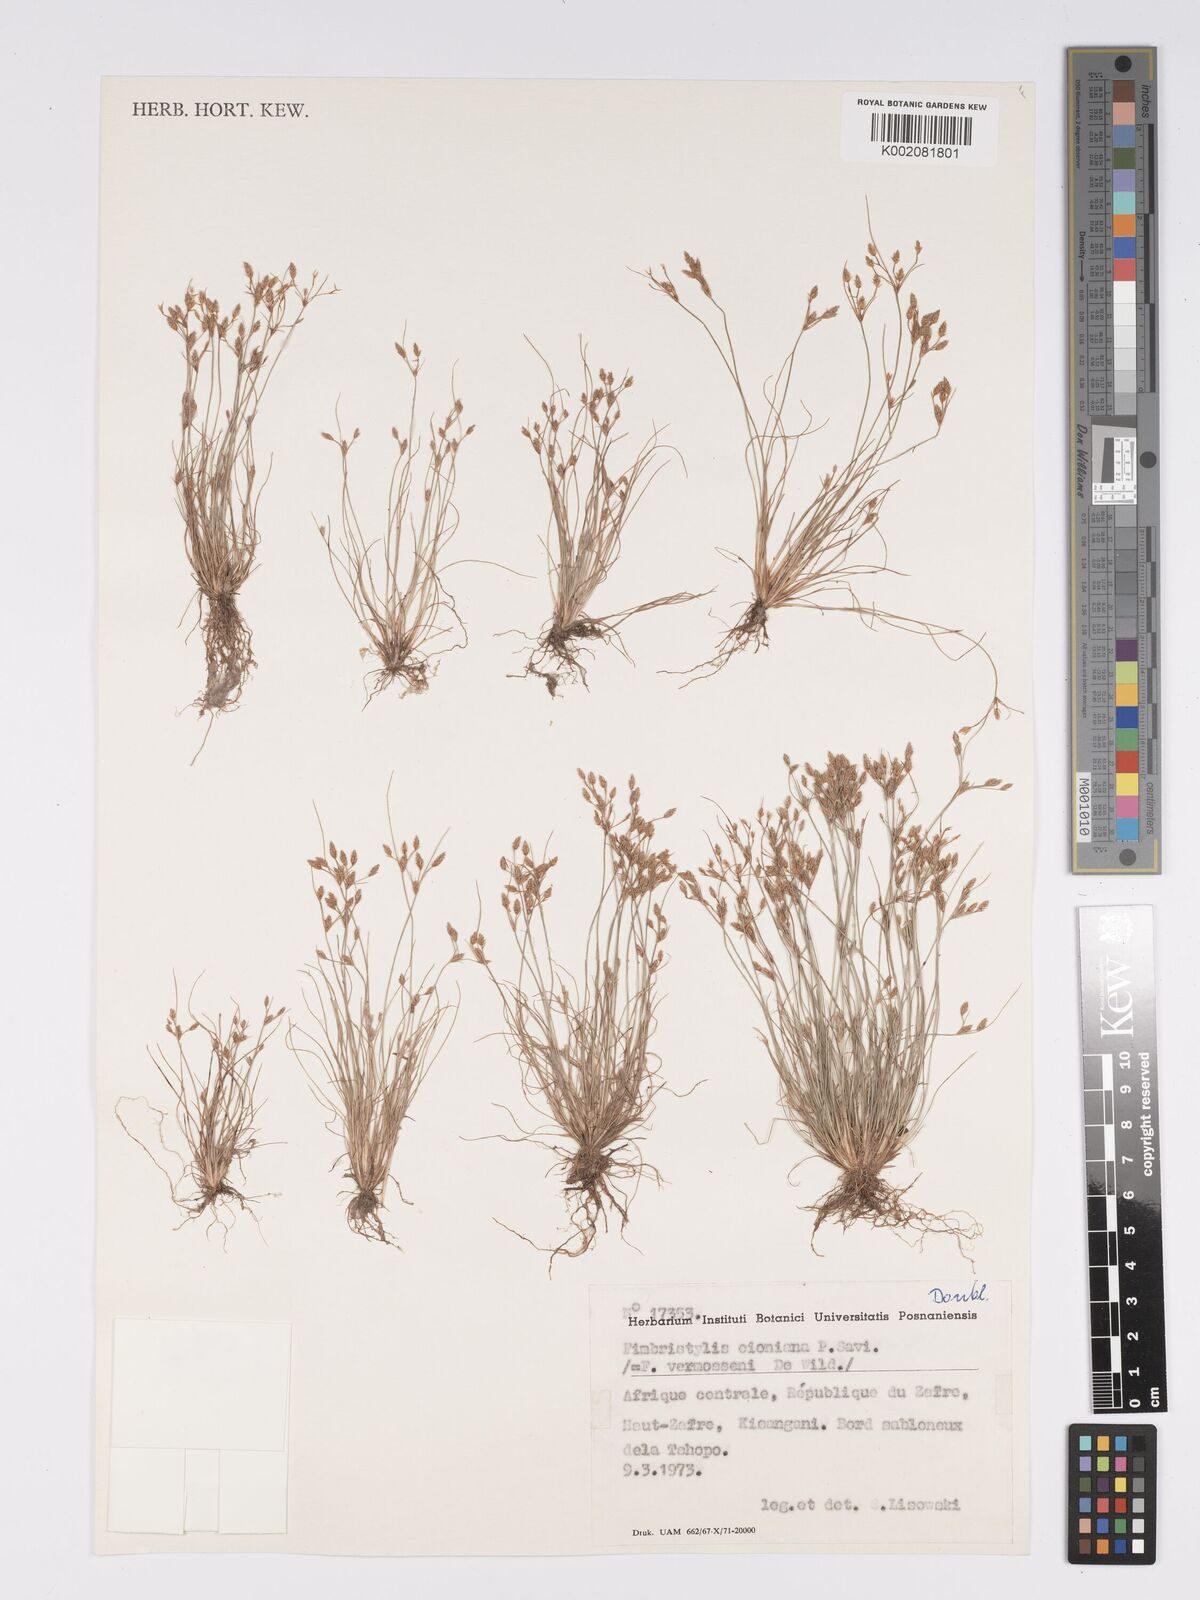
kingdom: Plantae
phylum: Tracheophyta
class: Liliopsida
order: Poales
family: Cyperaceae
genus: Bulbostylis
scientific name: Bulbostylis cioniana
